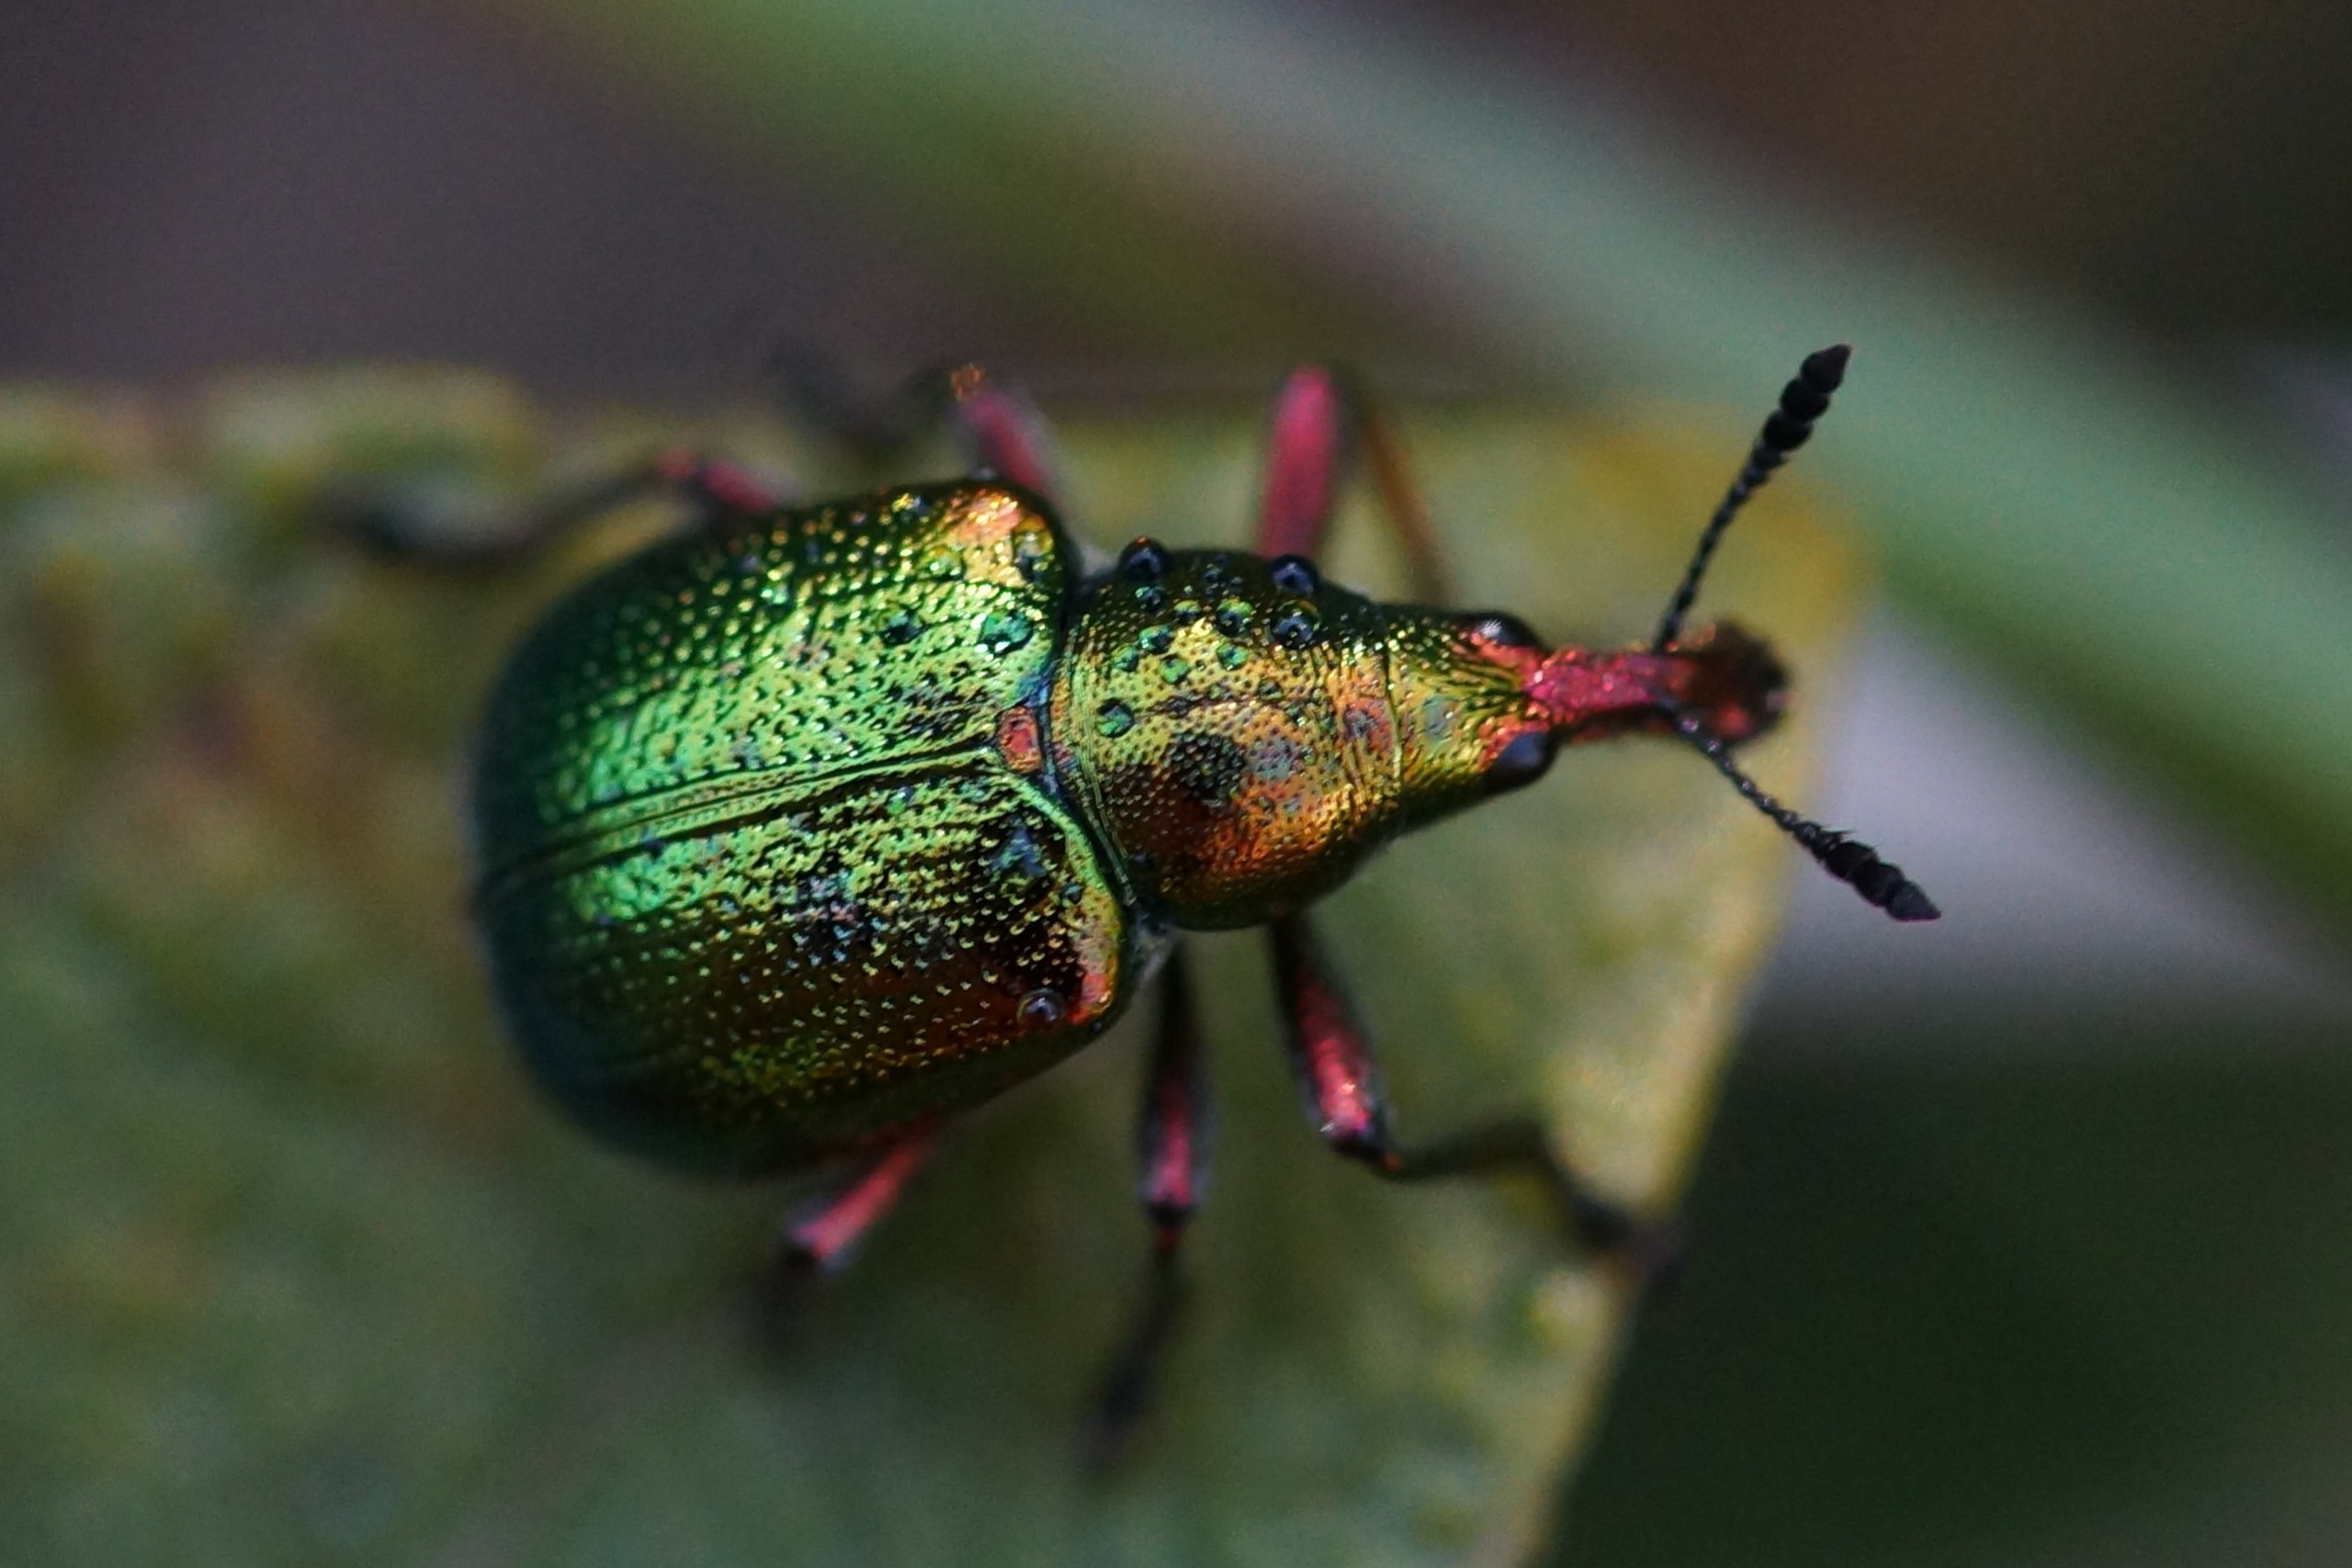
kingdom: Animalia
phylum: Arthropoda
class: Insecta
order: Coleoptera
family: Attelabidae
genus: Byctiscus
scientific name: Byctiscus betulae
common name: Cigarruller
